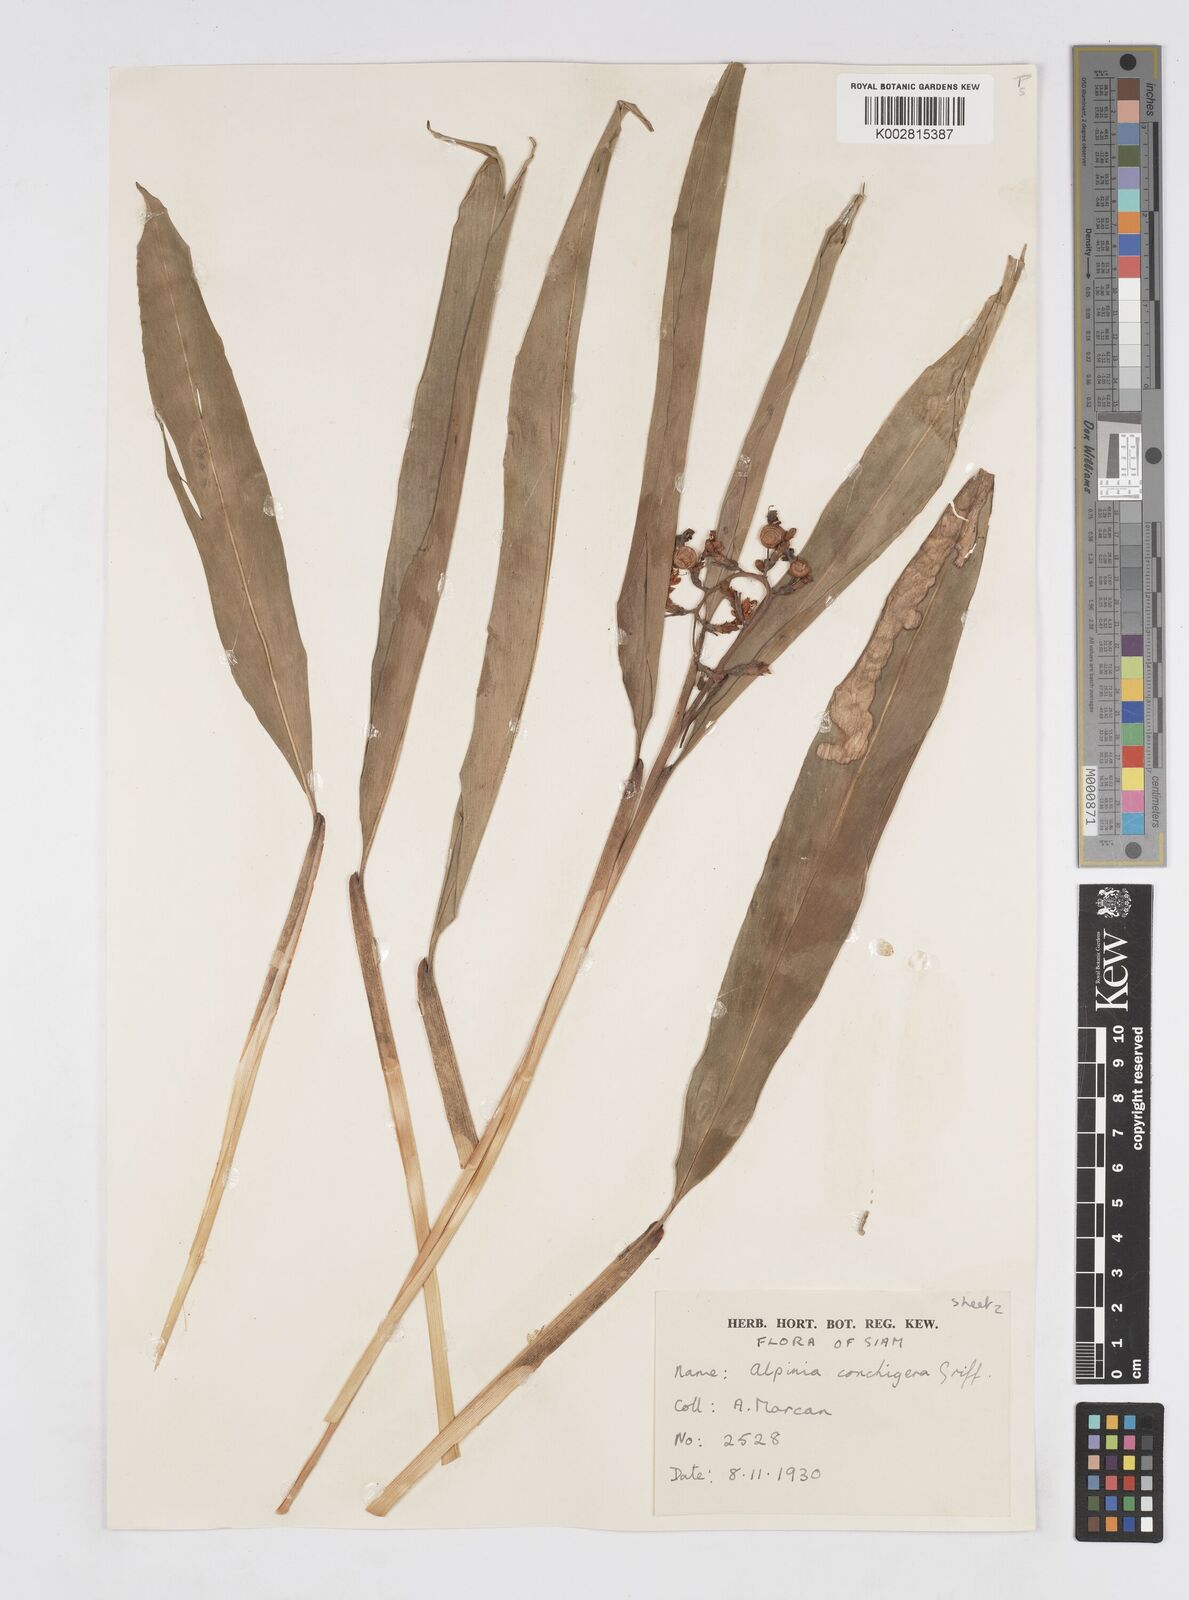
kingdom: Plantae
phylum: Tracheophyta
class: Liliopsida
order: Zingiberales
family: Zingiberaceae
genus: Alpinia
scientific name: Alpinia conchigera
